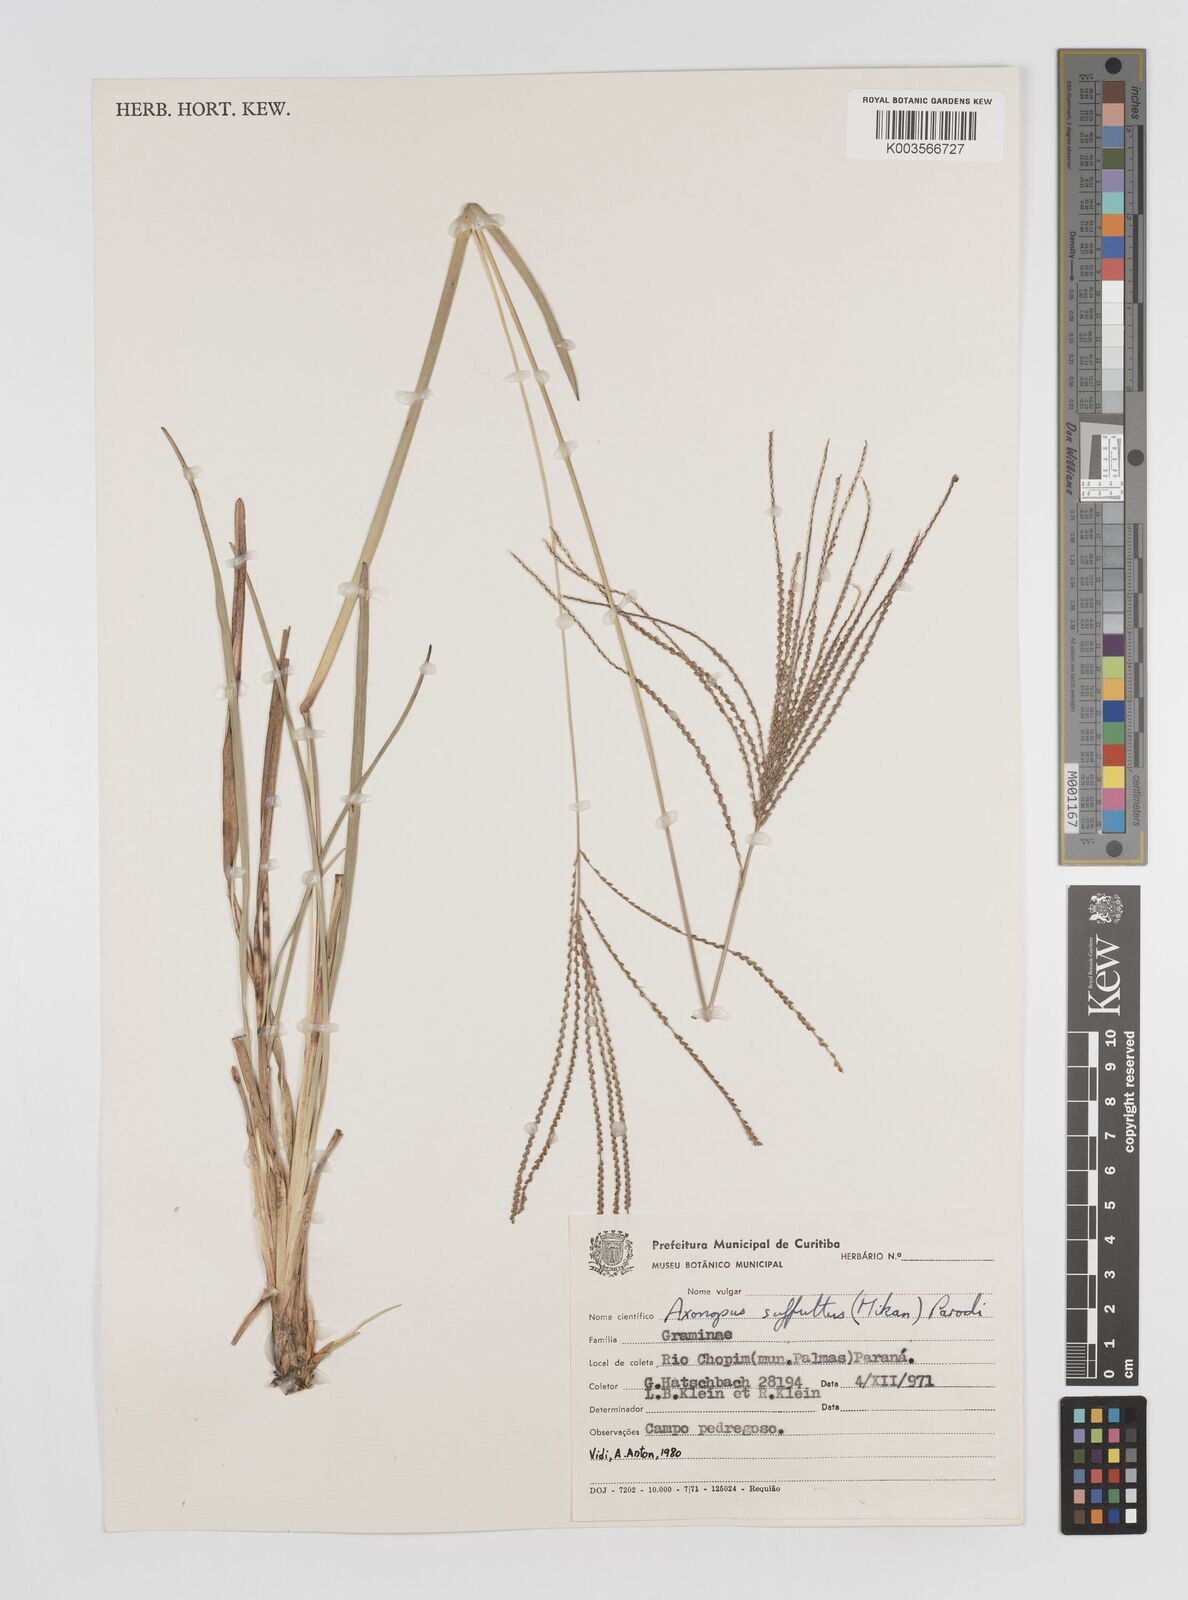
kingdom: Plantae
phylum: Tracheophyta
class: Liliopsida
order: Poales
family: Poaceae
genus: Axonopus
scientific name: Axonopus suffultus
